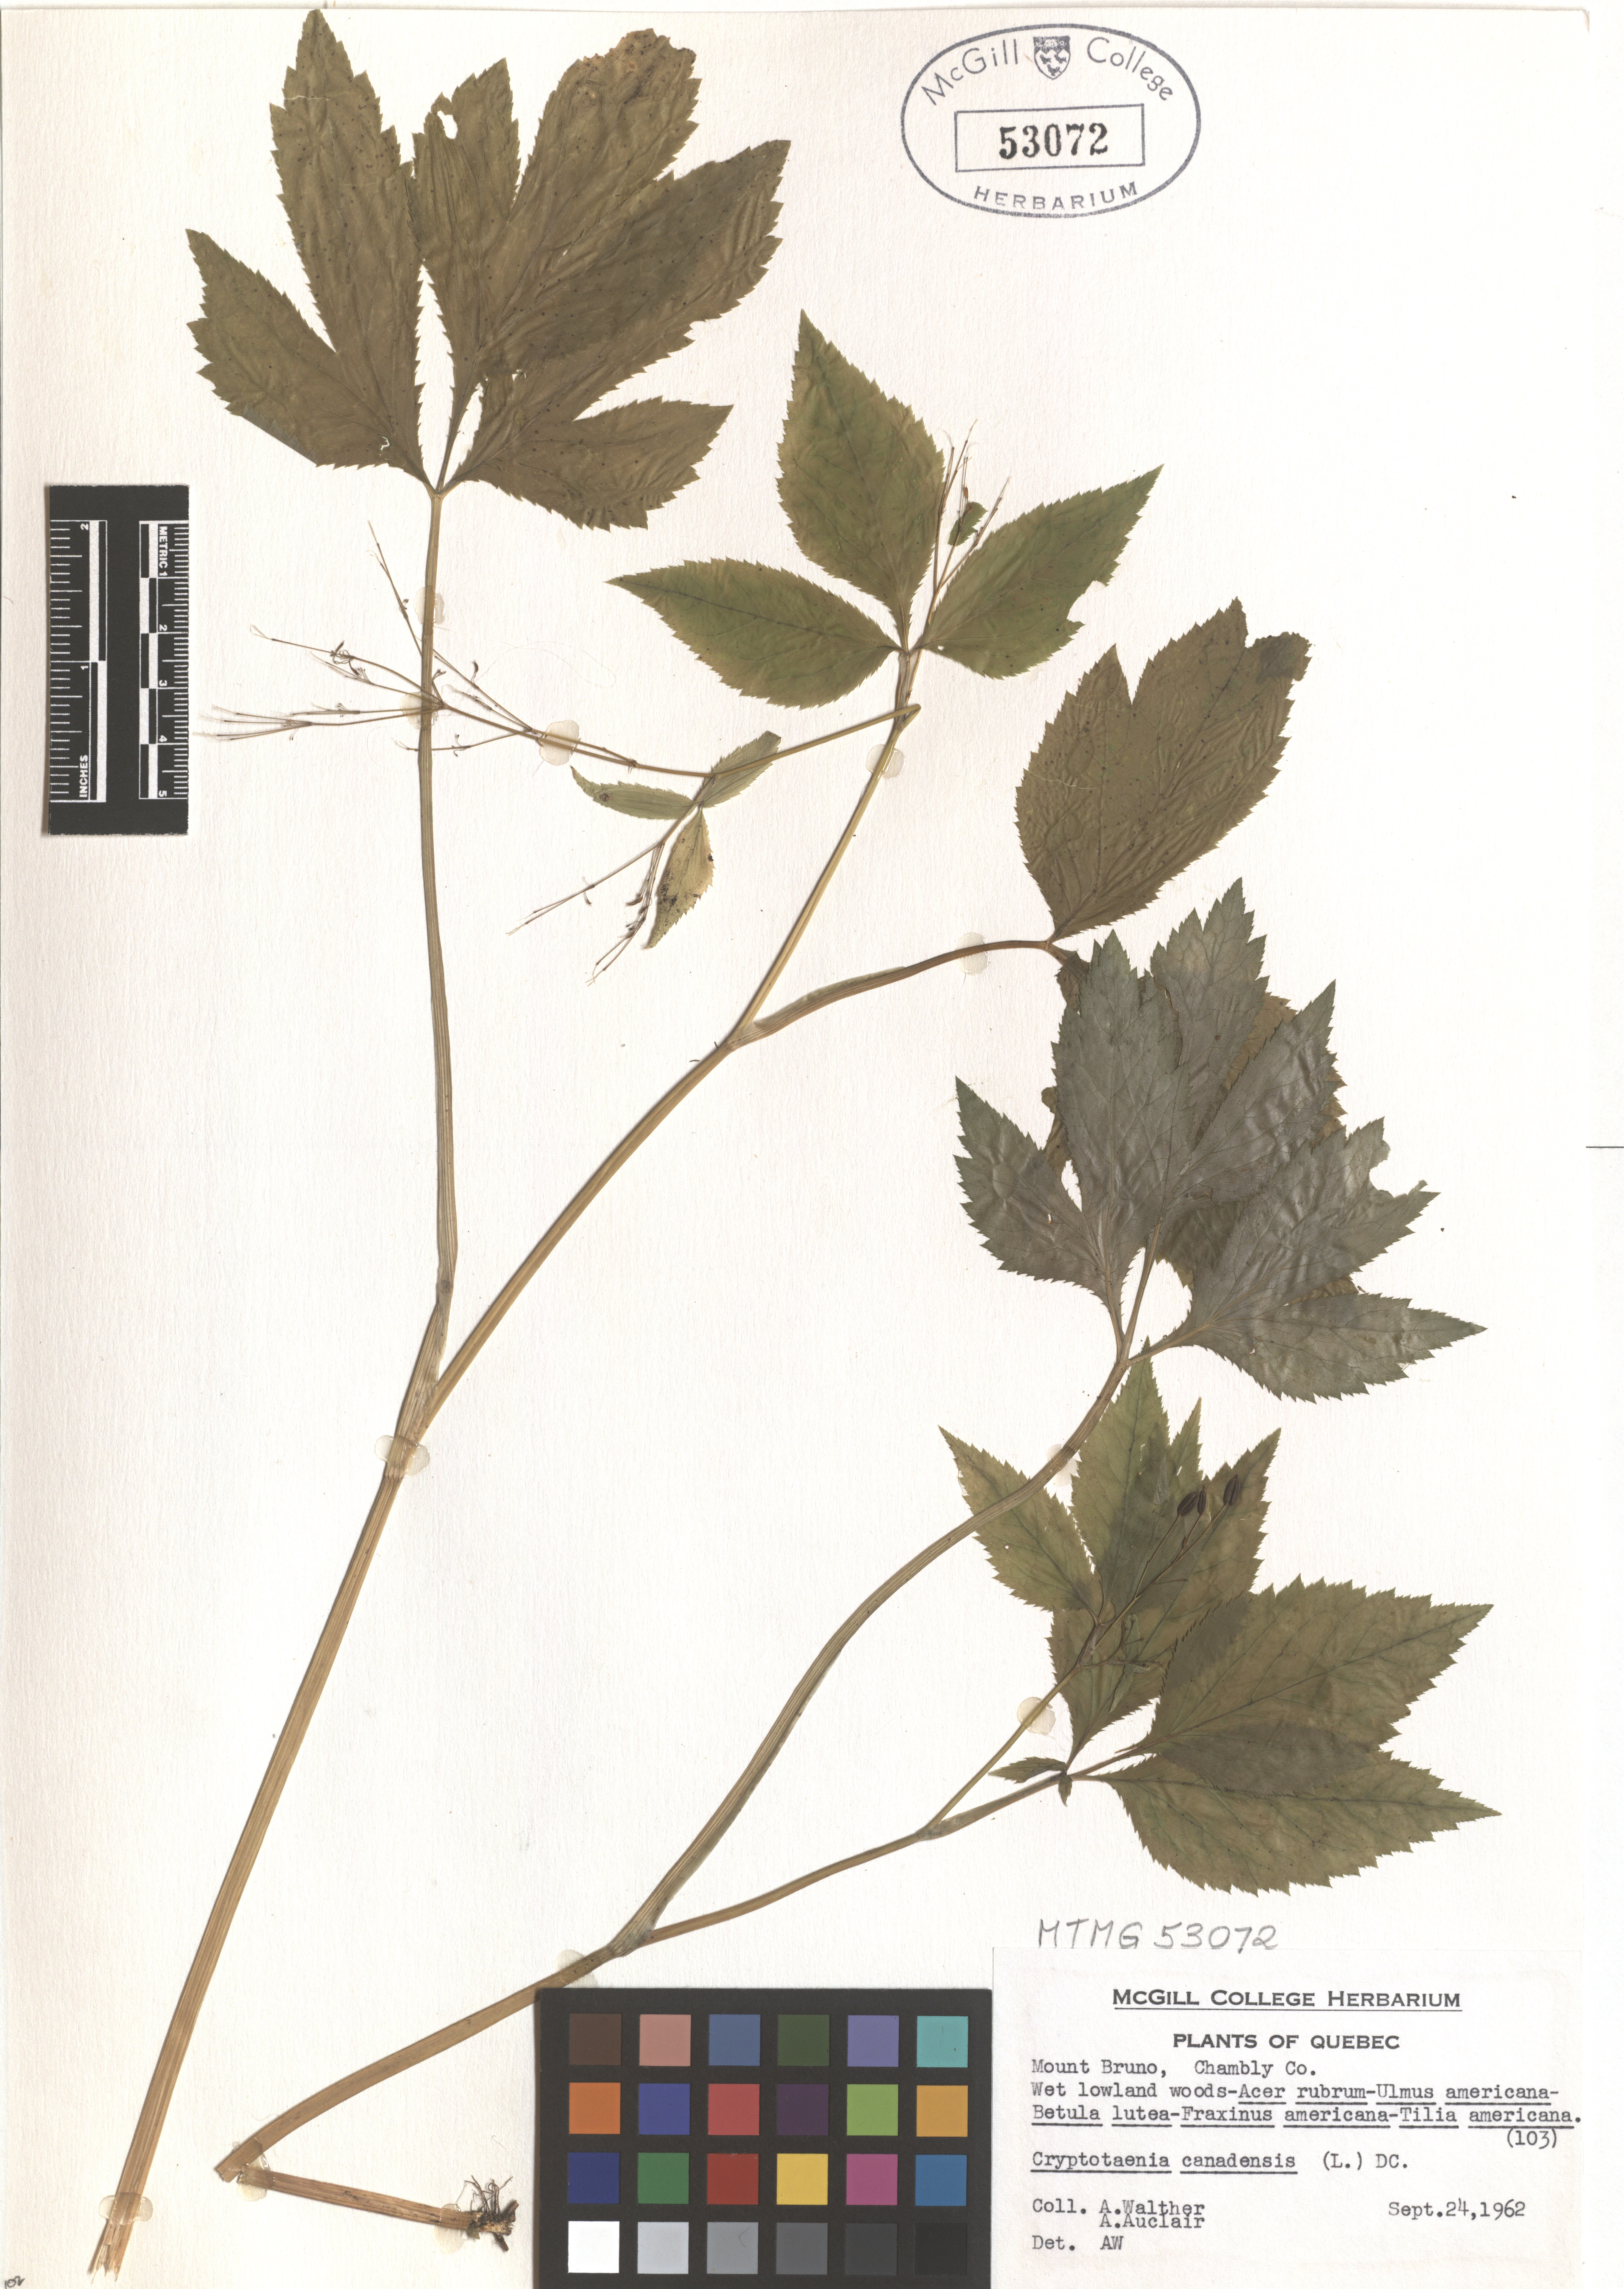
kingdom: Plantae
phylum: Tracheophyta
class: Magnoliopsida
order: Apiales
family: Apiaceae
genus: Cryptotaenia
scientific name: Cryptotaenia canadensis
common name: Honewort
